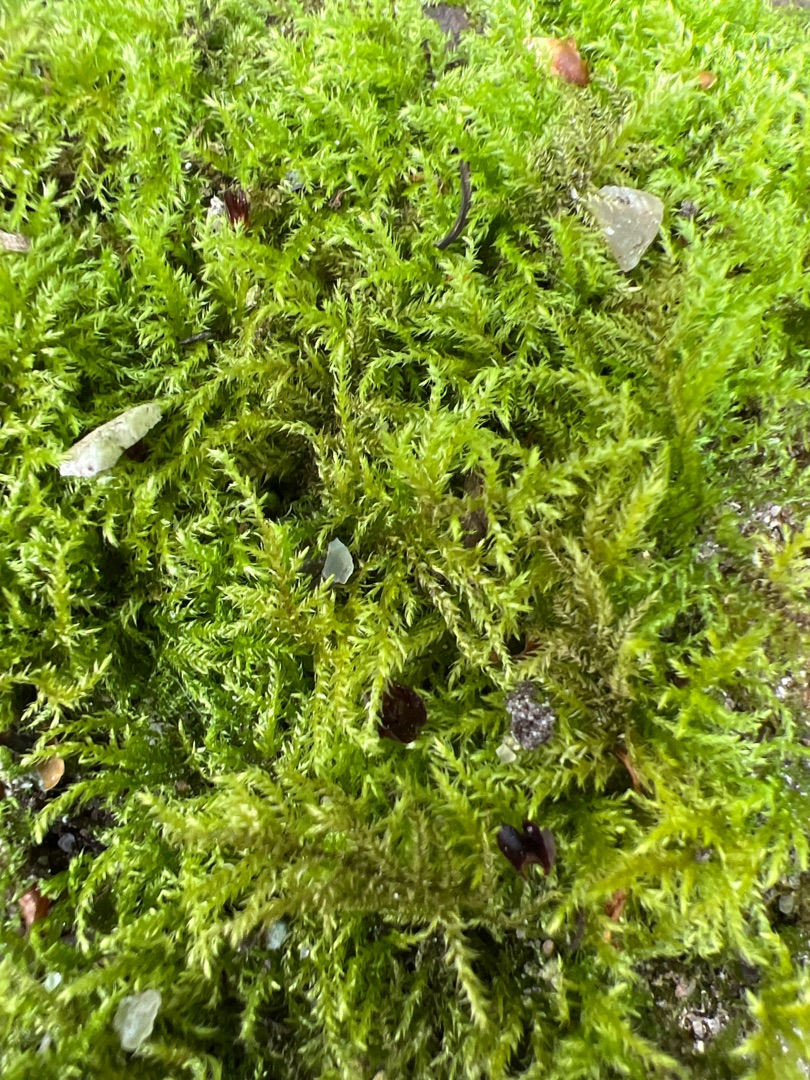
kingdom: Plantae
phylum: Bryophyta
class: Bryopsida
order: Hypnales
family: Brachytheciaceae
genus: Kindbergia
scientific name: Kindbergia praelonga
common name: Forskelligbladet vortetand
